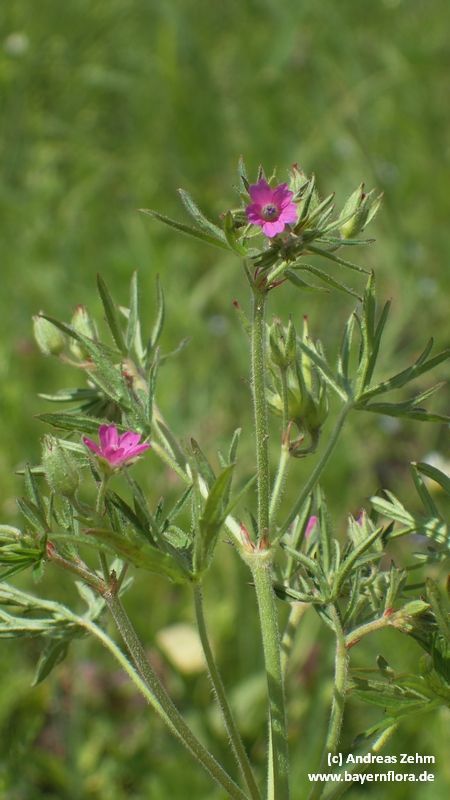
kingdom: Plantae
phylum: Tracheophyta
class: Magnoliopsida
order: Geraniales
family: Geraniaceae
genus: Geranium
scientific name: Geranium dissectum
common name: Cut-leaved crane's-bill
